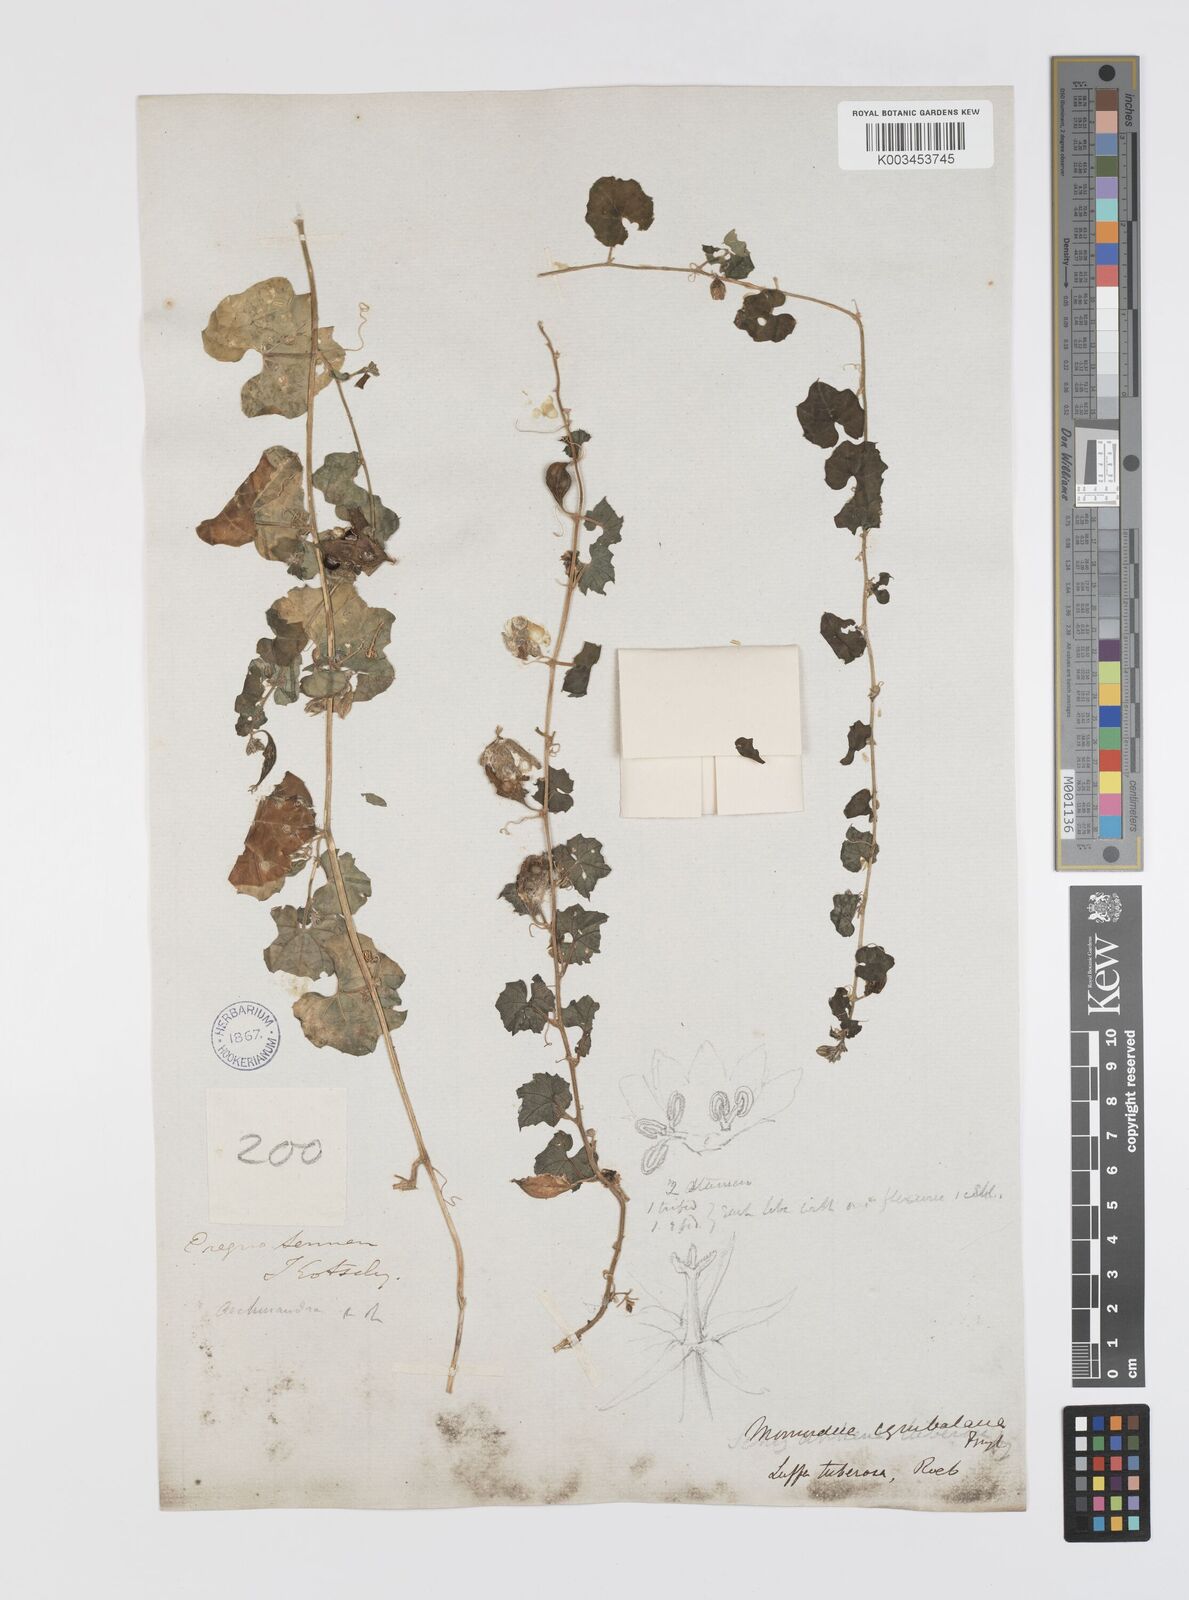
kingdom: Plantae
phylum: Tracheophyta
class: Magnoliopsida
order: Cucurbitales
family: Cucurbitaceae
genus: Momordica
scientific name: Momordica multiflora
